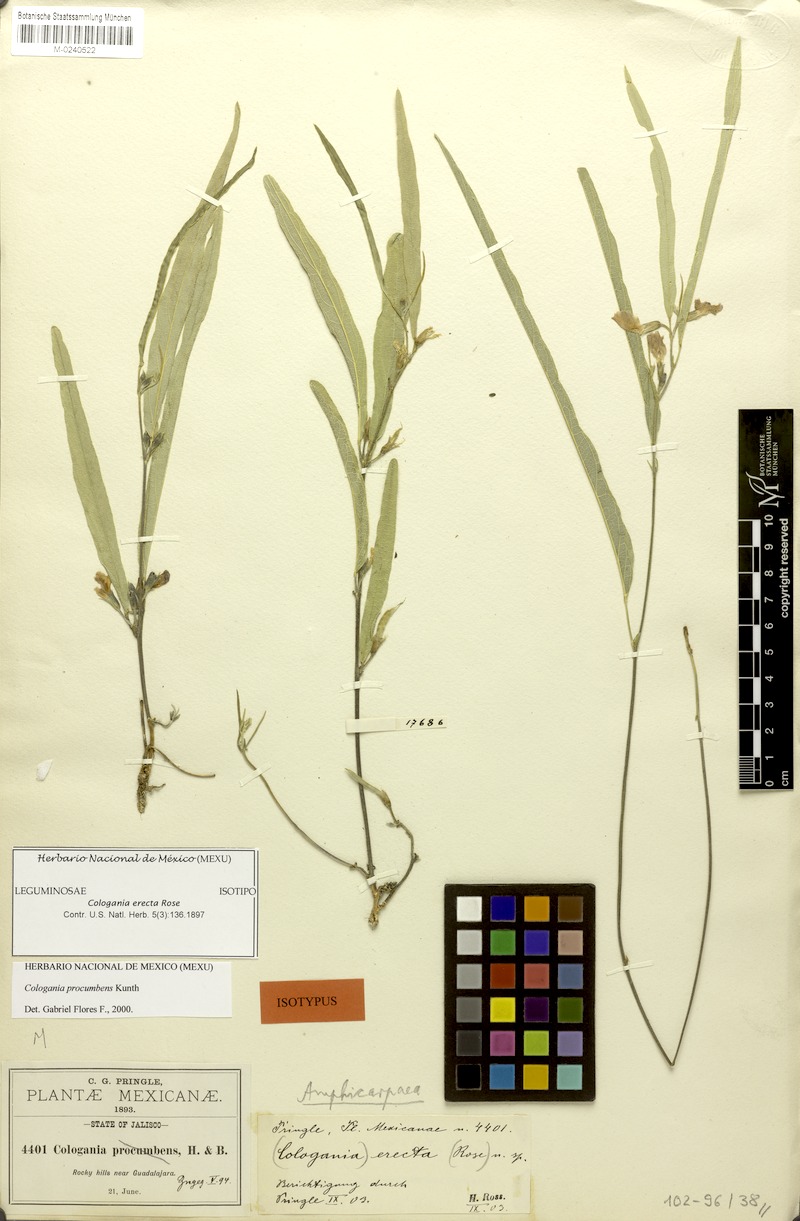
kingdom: Plantae
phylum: Tracheophyta
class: Magnoliopsida
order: Fabales
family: Fabaceae
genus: Cologania
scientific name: Cologania procumbens
